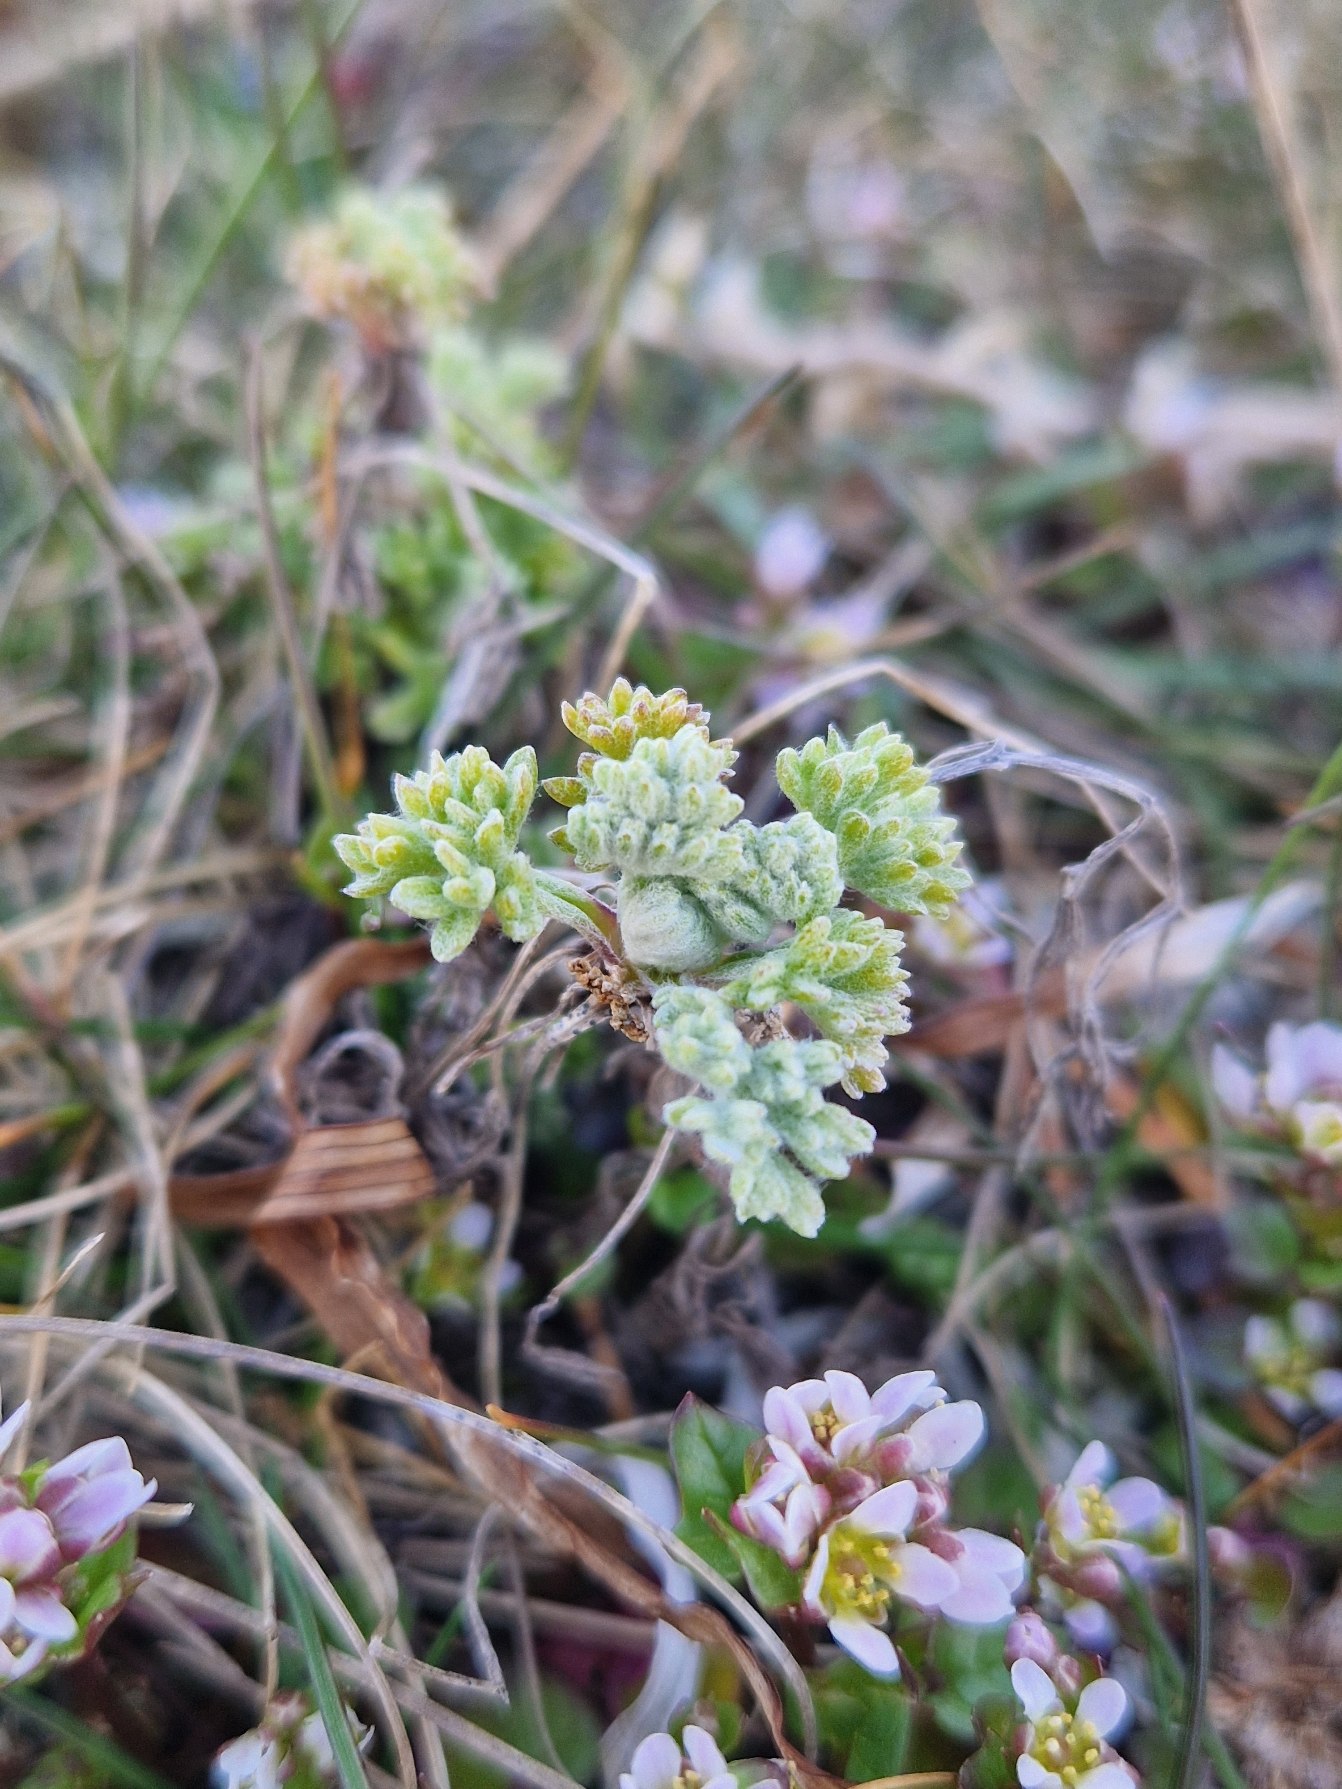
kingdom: Plantae
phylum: Tracheophyta
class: Magnoliopsida
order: Asterales
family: Asteraceae
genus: Artemisia
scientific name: Artemisia maritima
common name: Strandmalurt
